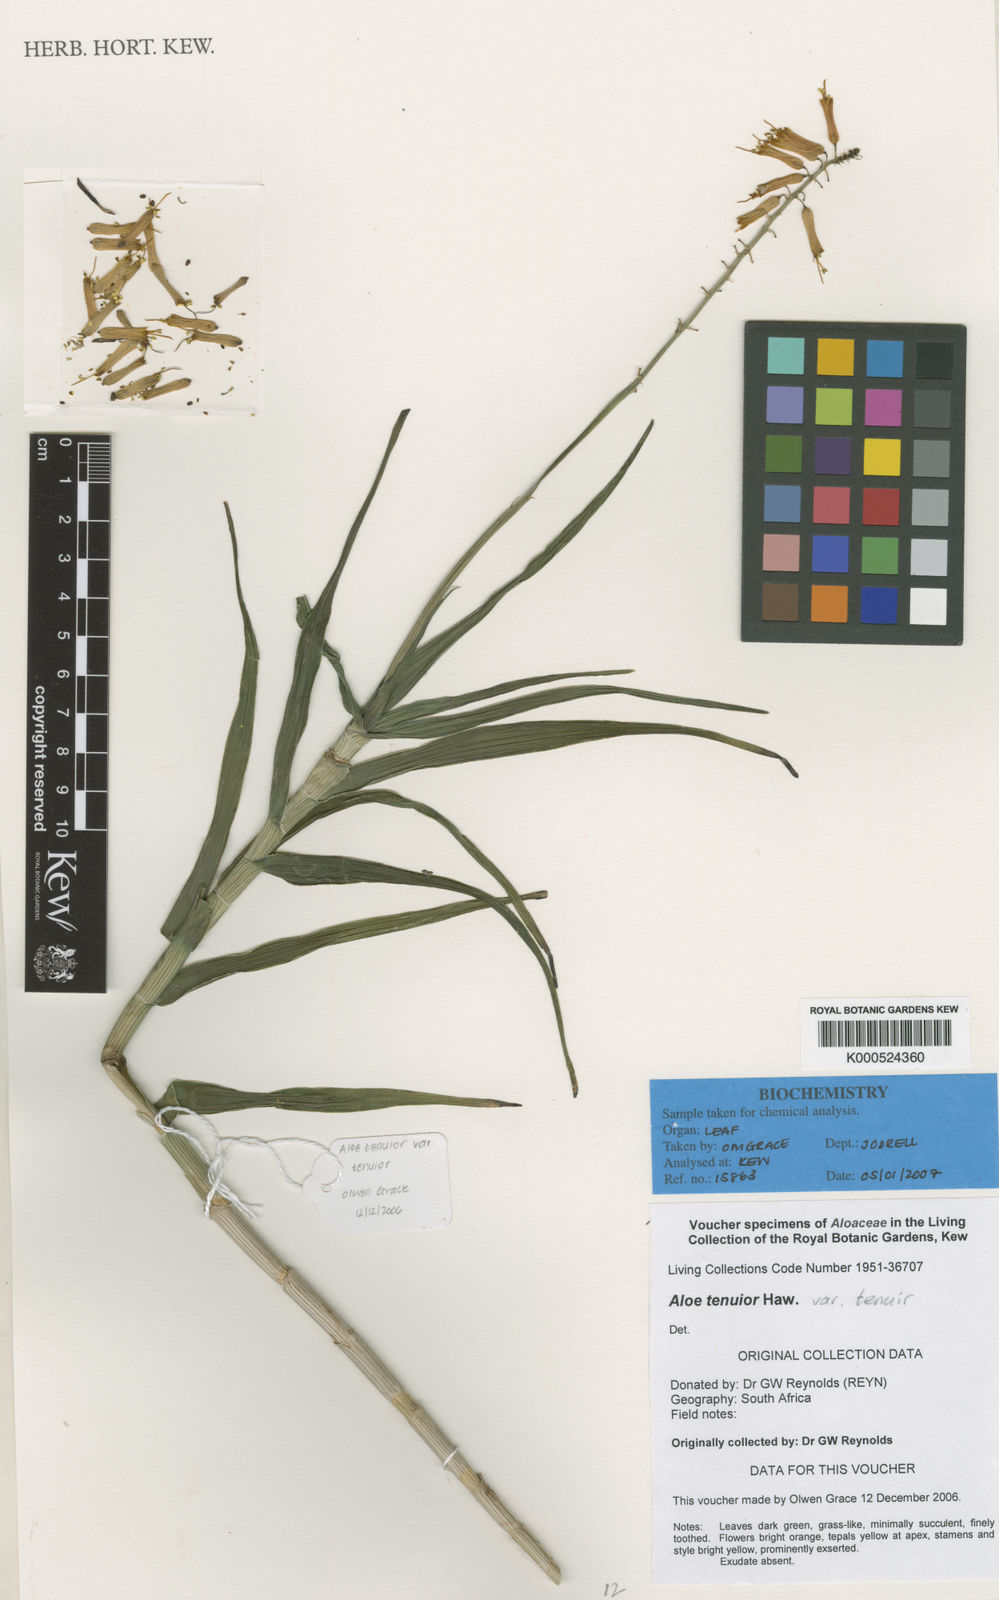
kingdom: Plantae
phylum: Tracheophyta
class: Liliopsida
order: Asparagales
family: Asphodelaceae
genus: Aloiampelos
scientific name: Aloiampelos tenuior
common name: Fence aloe
